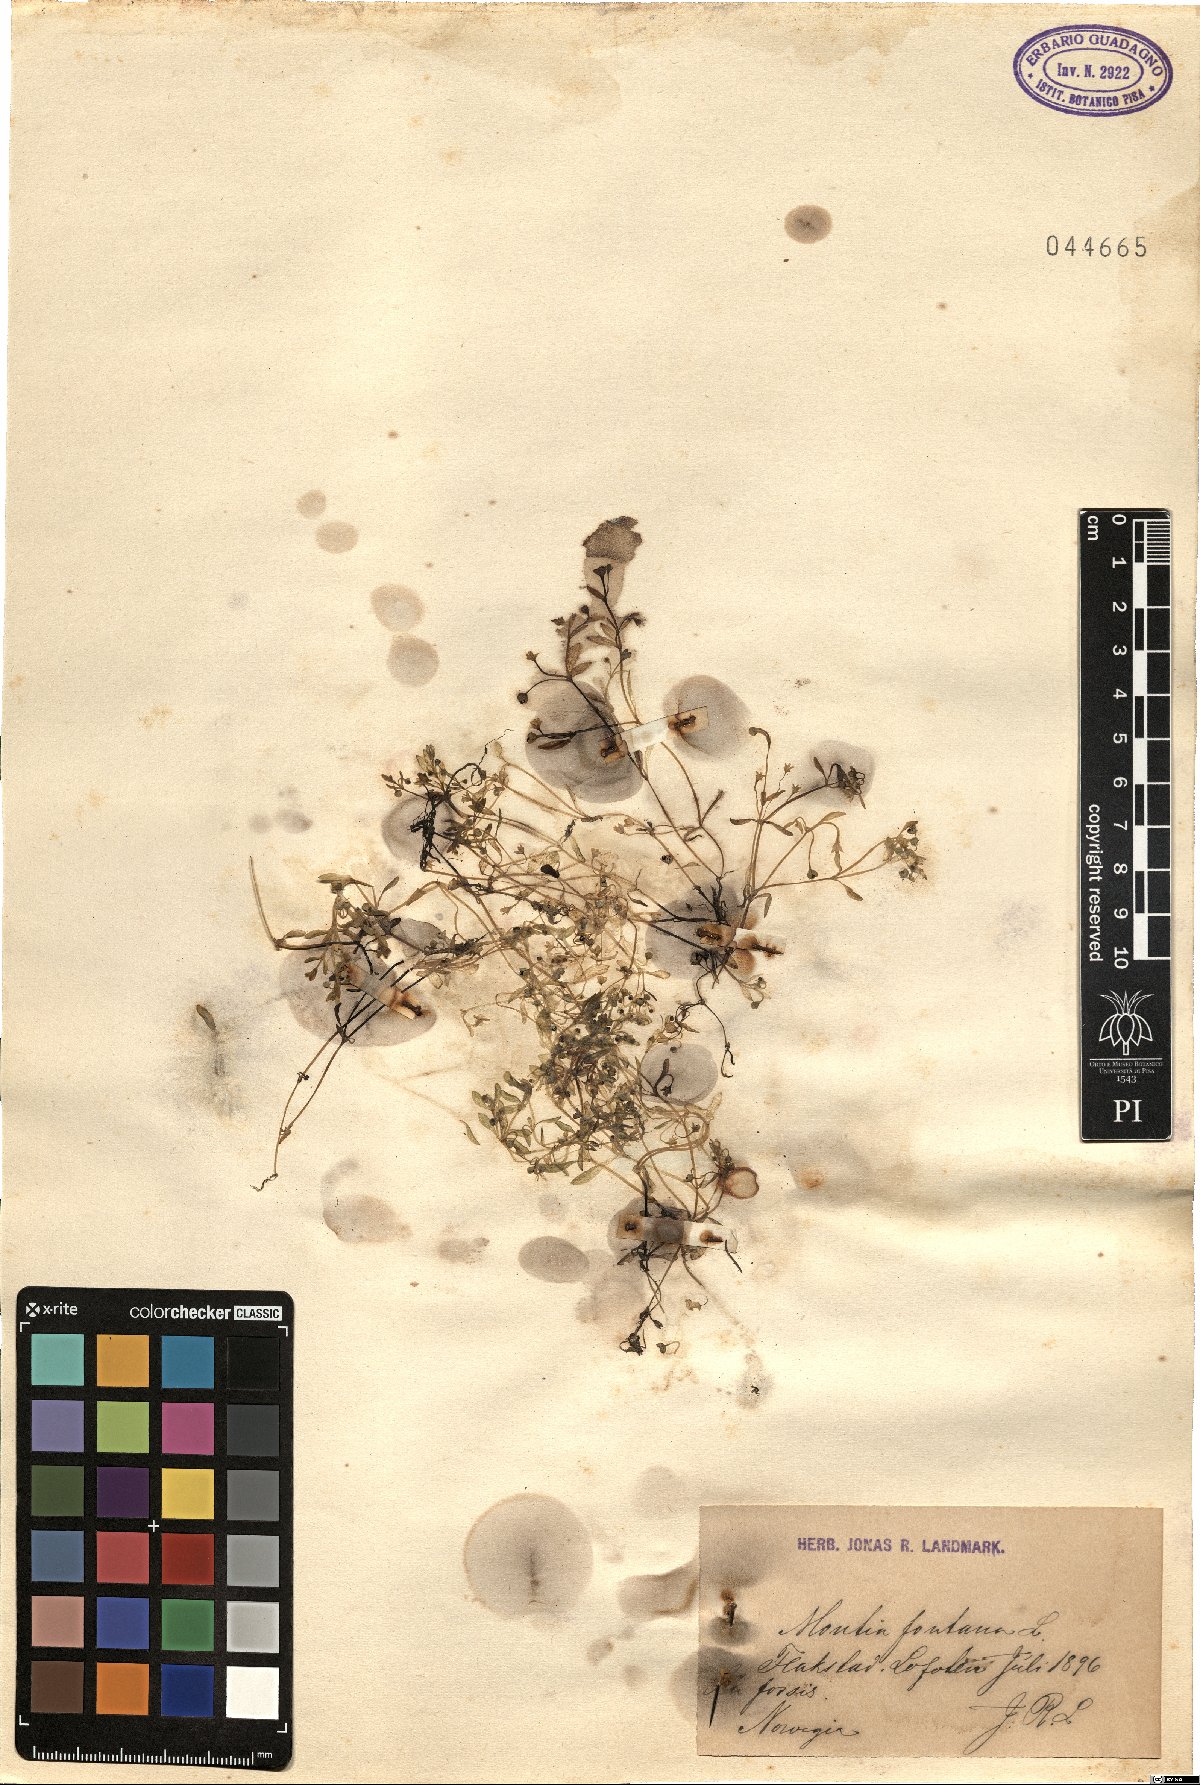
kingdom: Plantae
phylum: Tracheophyta
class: Magnoliopsida
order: Caryophyllales
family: Montiaceae
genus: Montia
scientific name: Montia fontana
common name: Blinks
